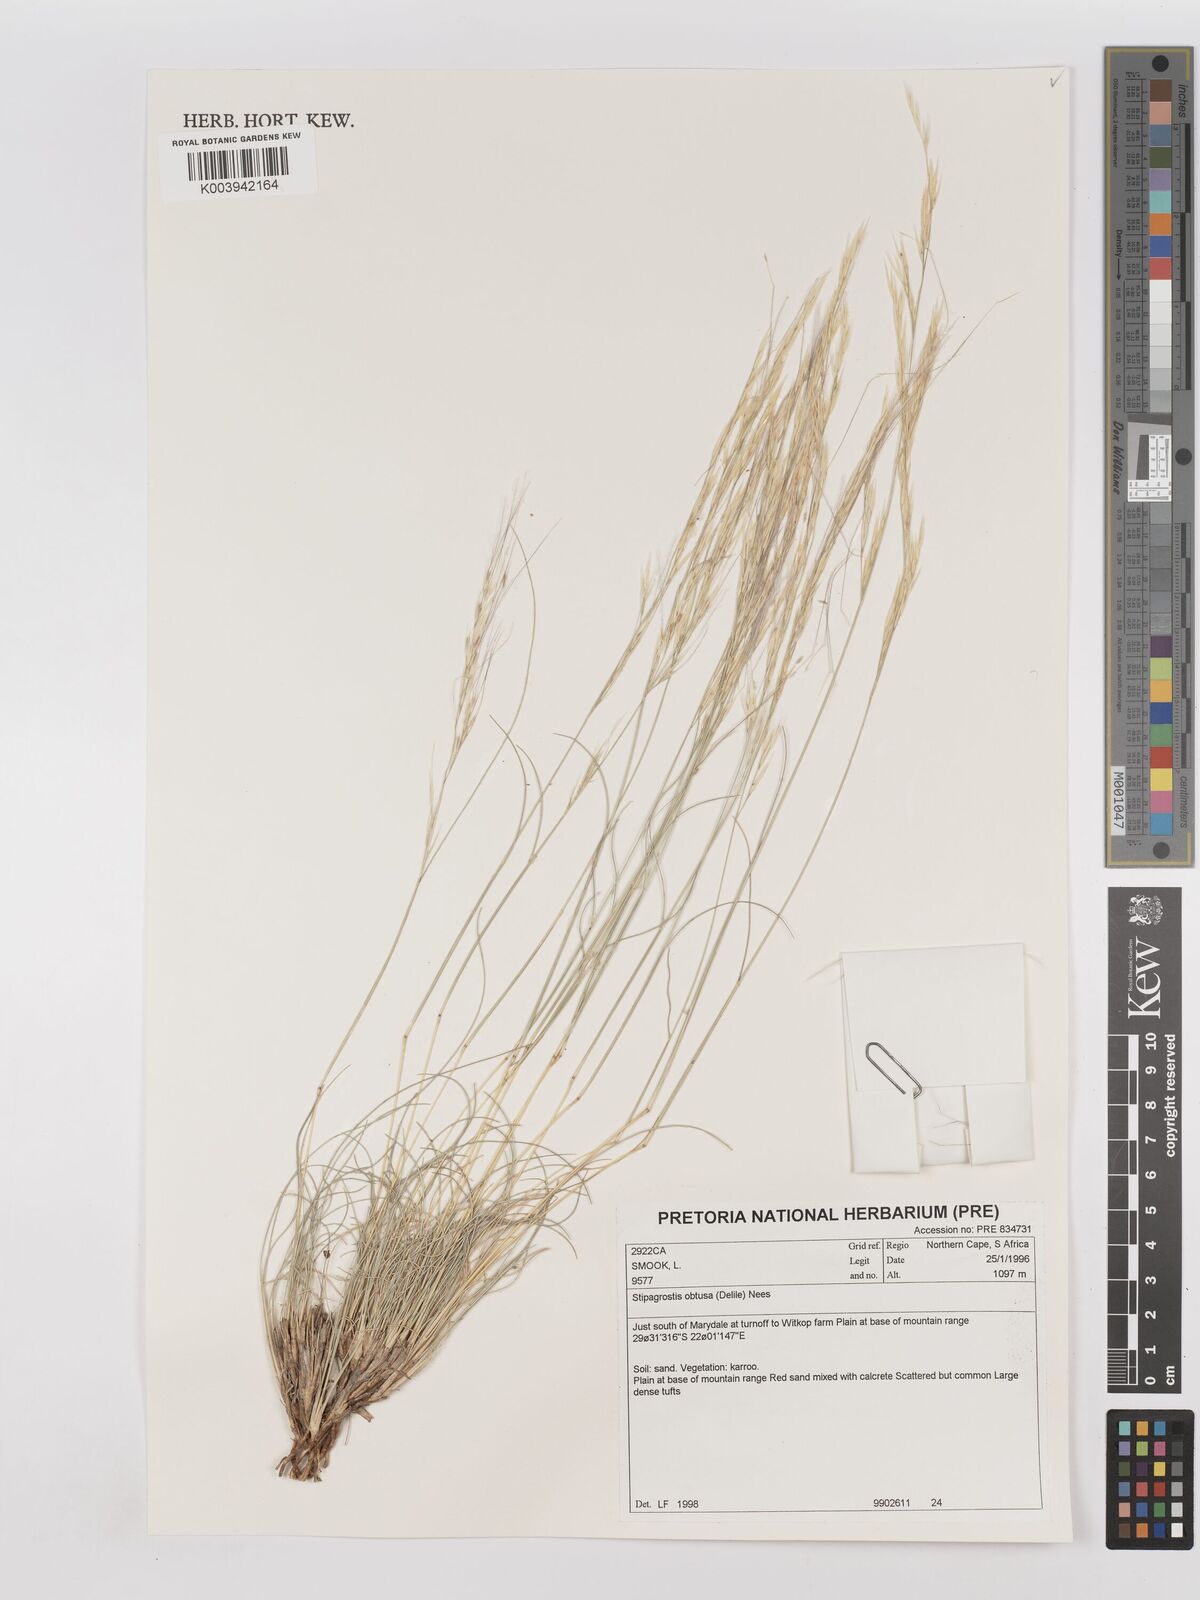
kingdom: Plantae
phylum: Tracheophyta
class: Liliopsida
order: Poales
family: Poaceae
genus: Stipagrostis
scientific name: Stipagrostis obtusa
